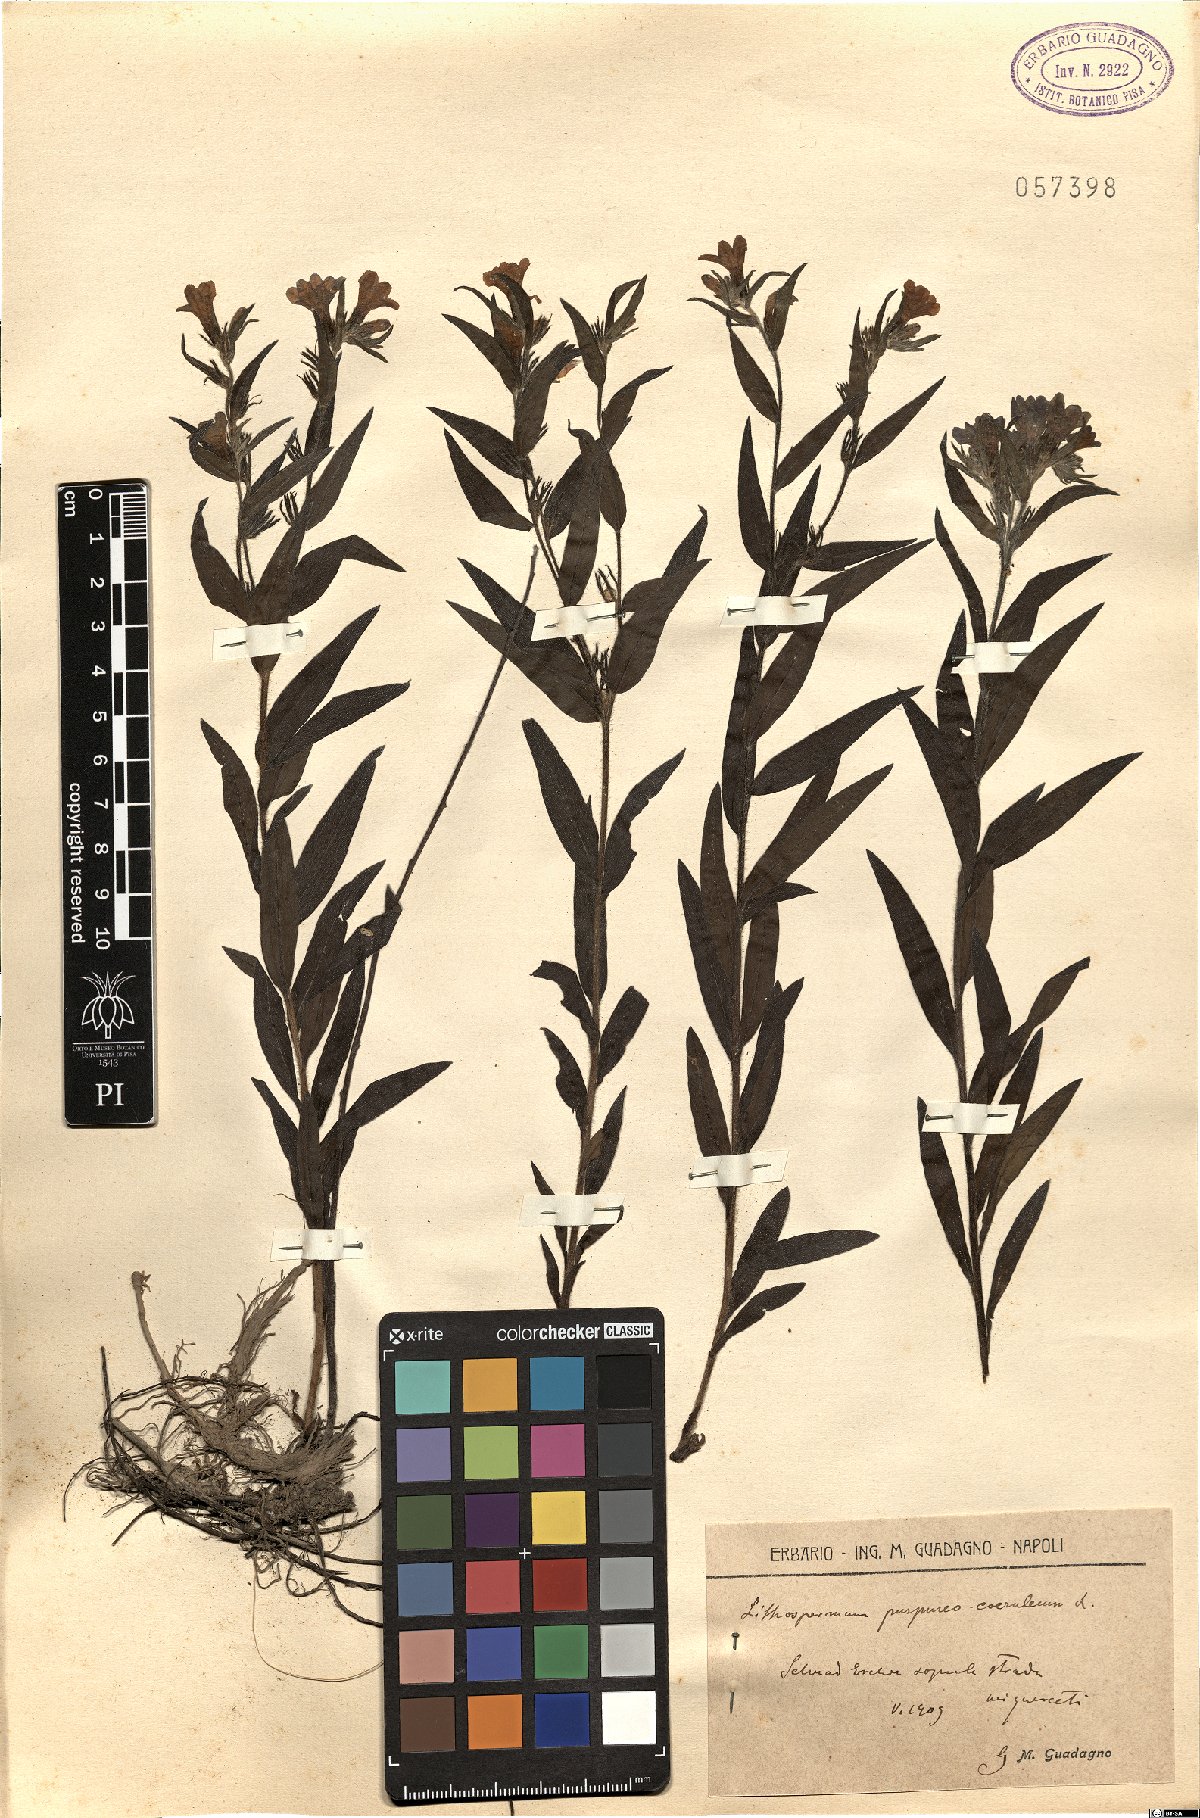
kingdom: Plantae
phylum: Tracheophyta
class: Magnoliopsida
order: Boraginales
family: Boraginaceae
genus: Aegonychon
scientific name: Aegonychon purpurocaeruleum
